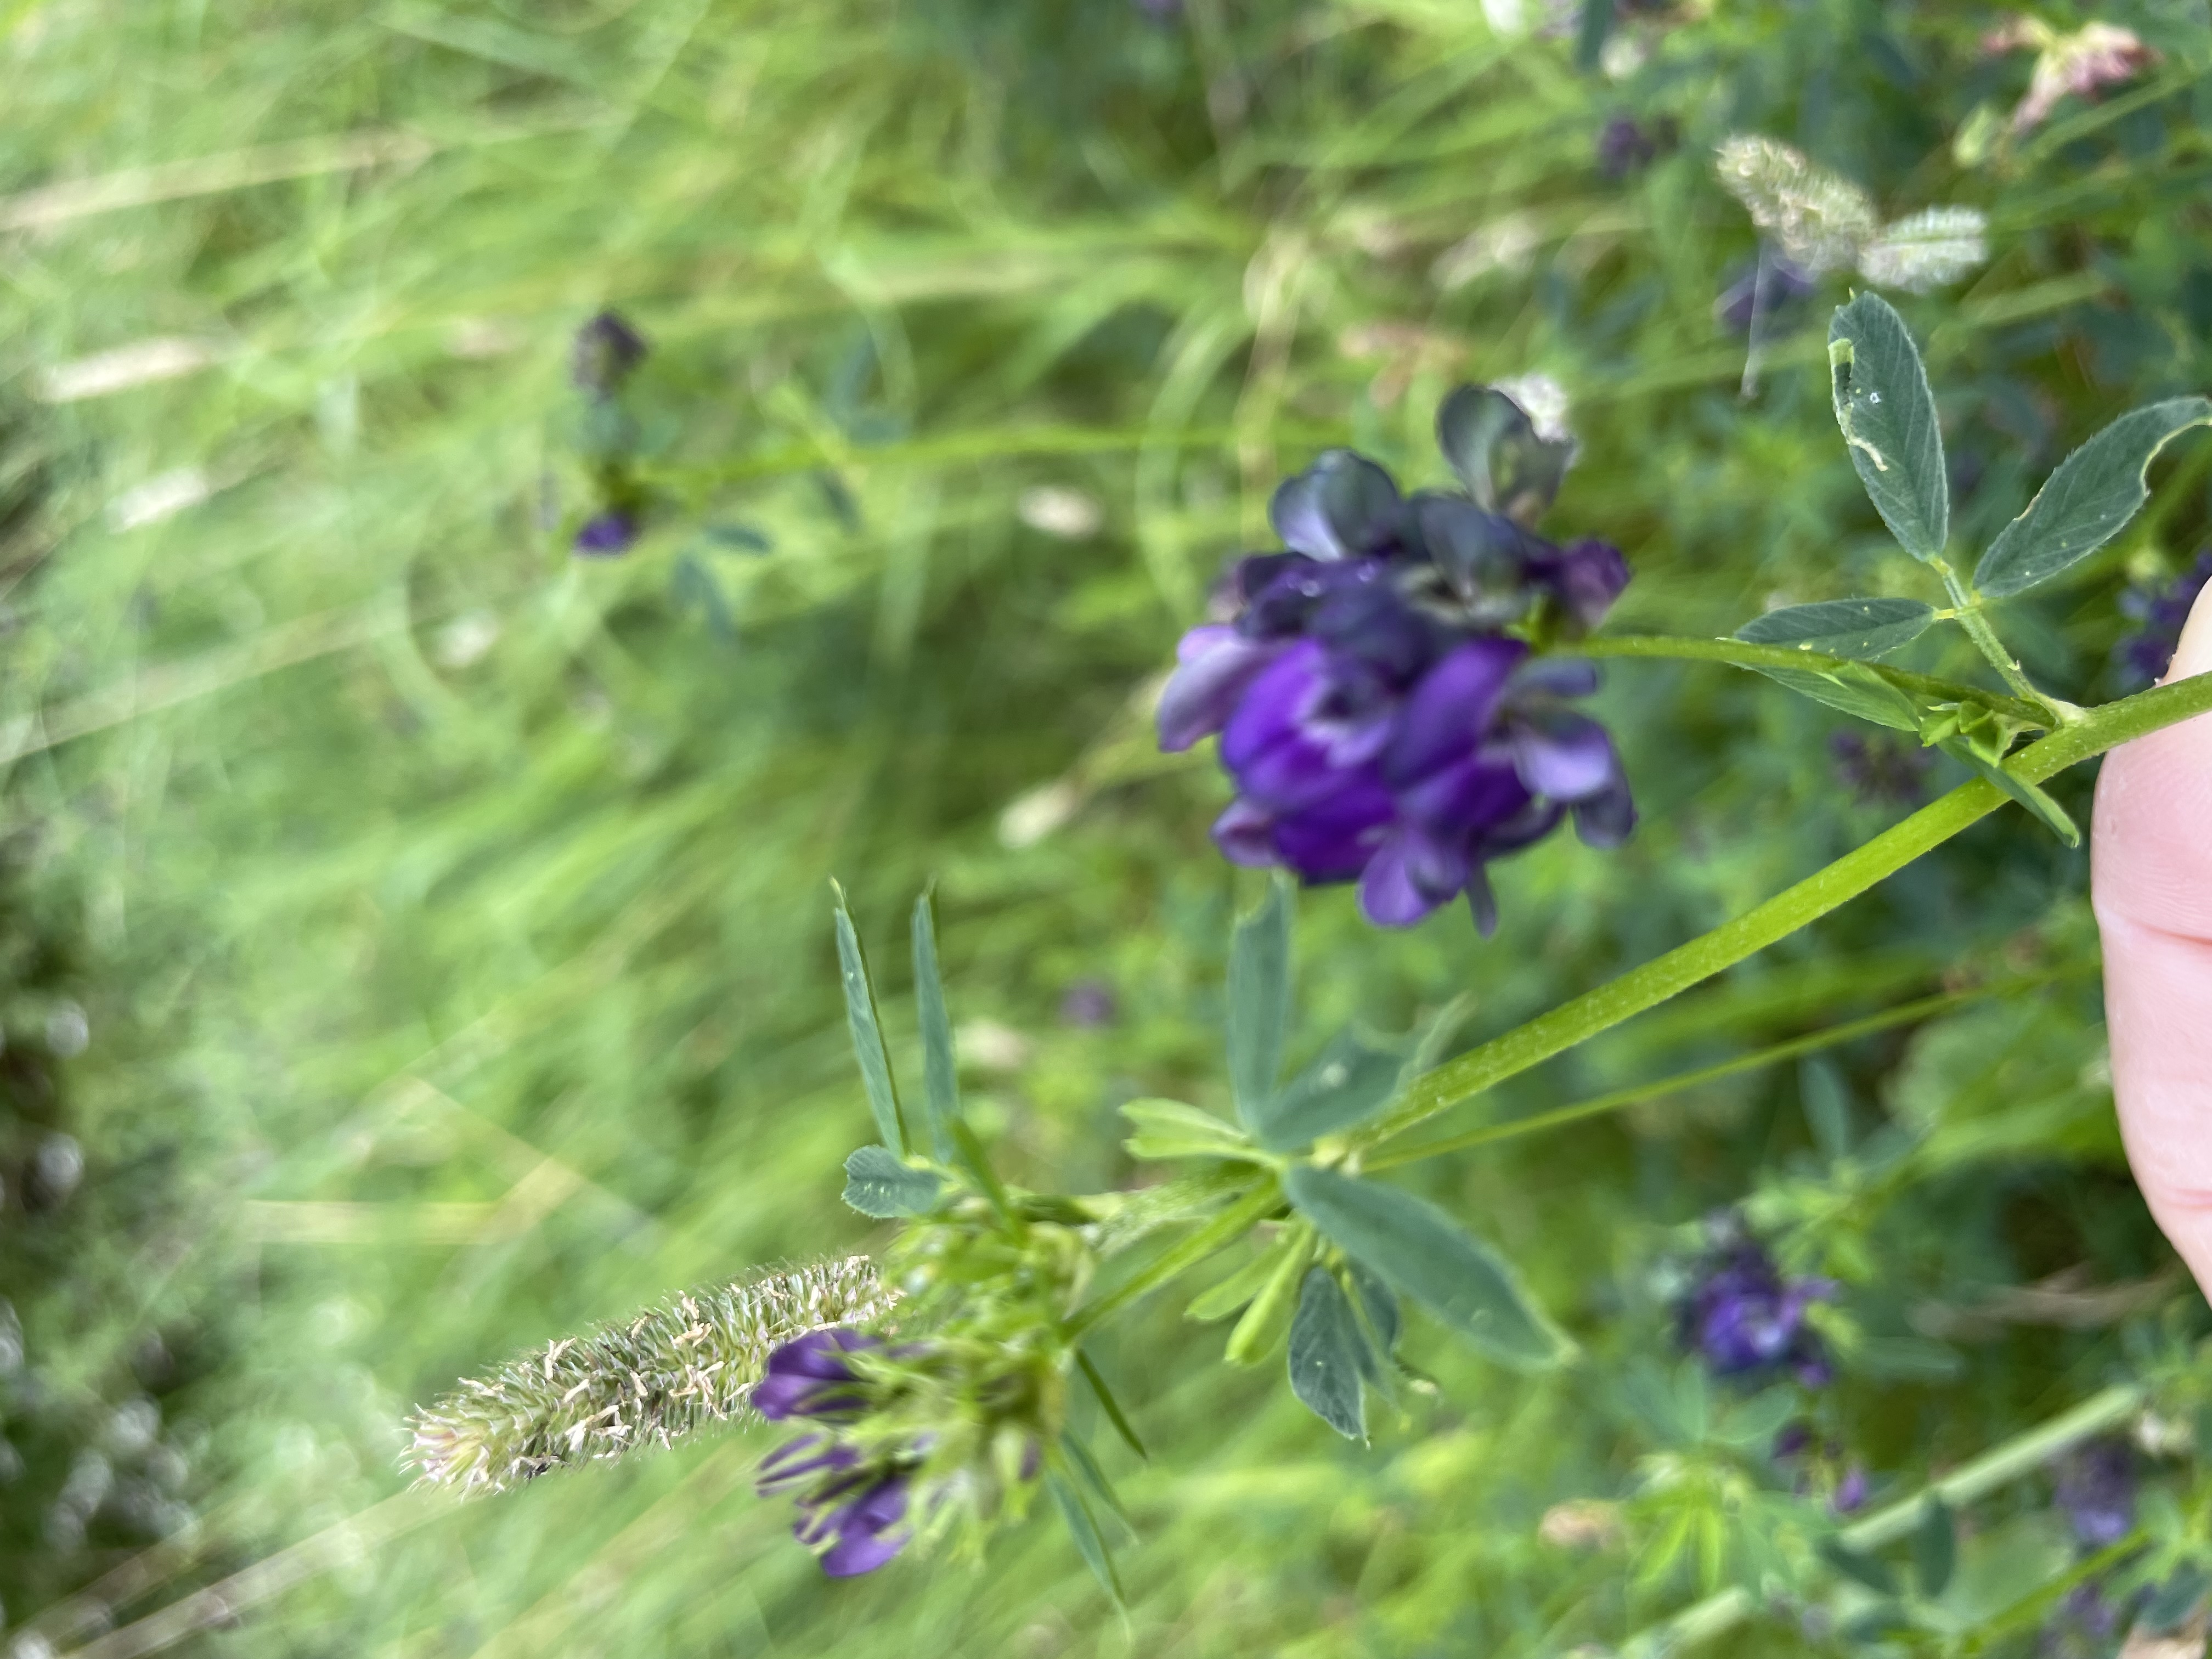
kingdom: Plantae
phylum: Tracheophyta
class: Magnoliopsida
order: Fabales
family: Fabaceae
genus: Medicago
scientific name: Medicago varia
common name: Sand-lucerne
